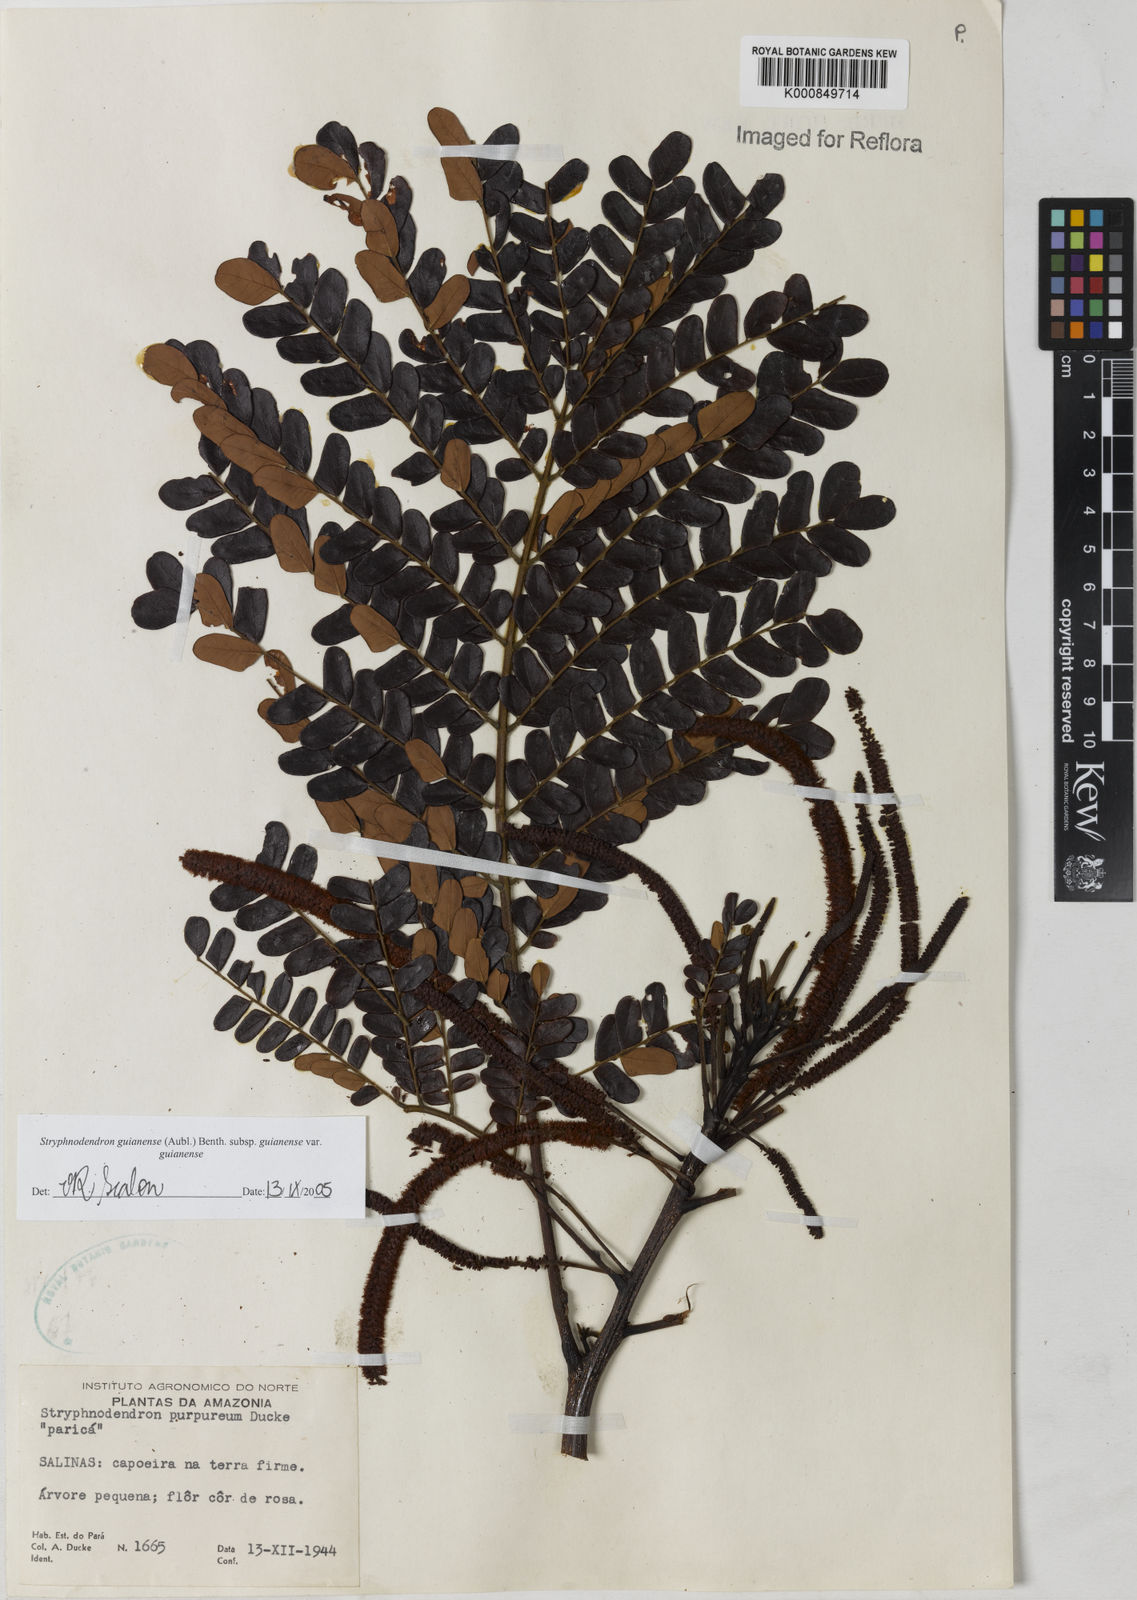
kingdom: Plantae
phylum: Tracheophyta
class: Magnoliopsida
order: Fabales
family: Fabaceae
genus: Stryphnodendron
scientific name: Stryphnodendron guianense
